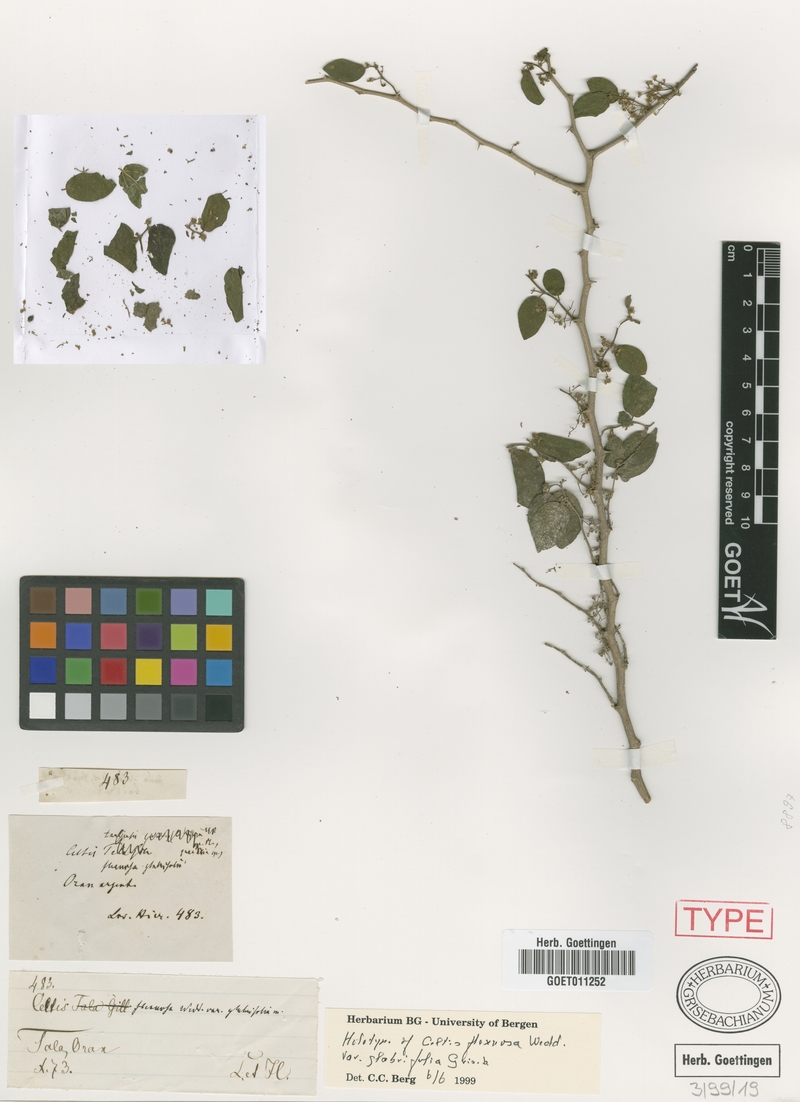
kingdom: Plantae
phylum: Tracheophyta
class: Magnoliopsida
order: Rosales
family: Cannabaceae
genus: Celtis
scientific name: Celtis pallida
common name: Desert hackberry
